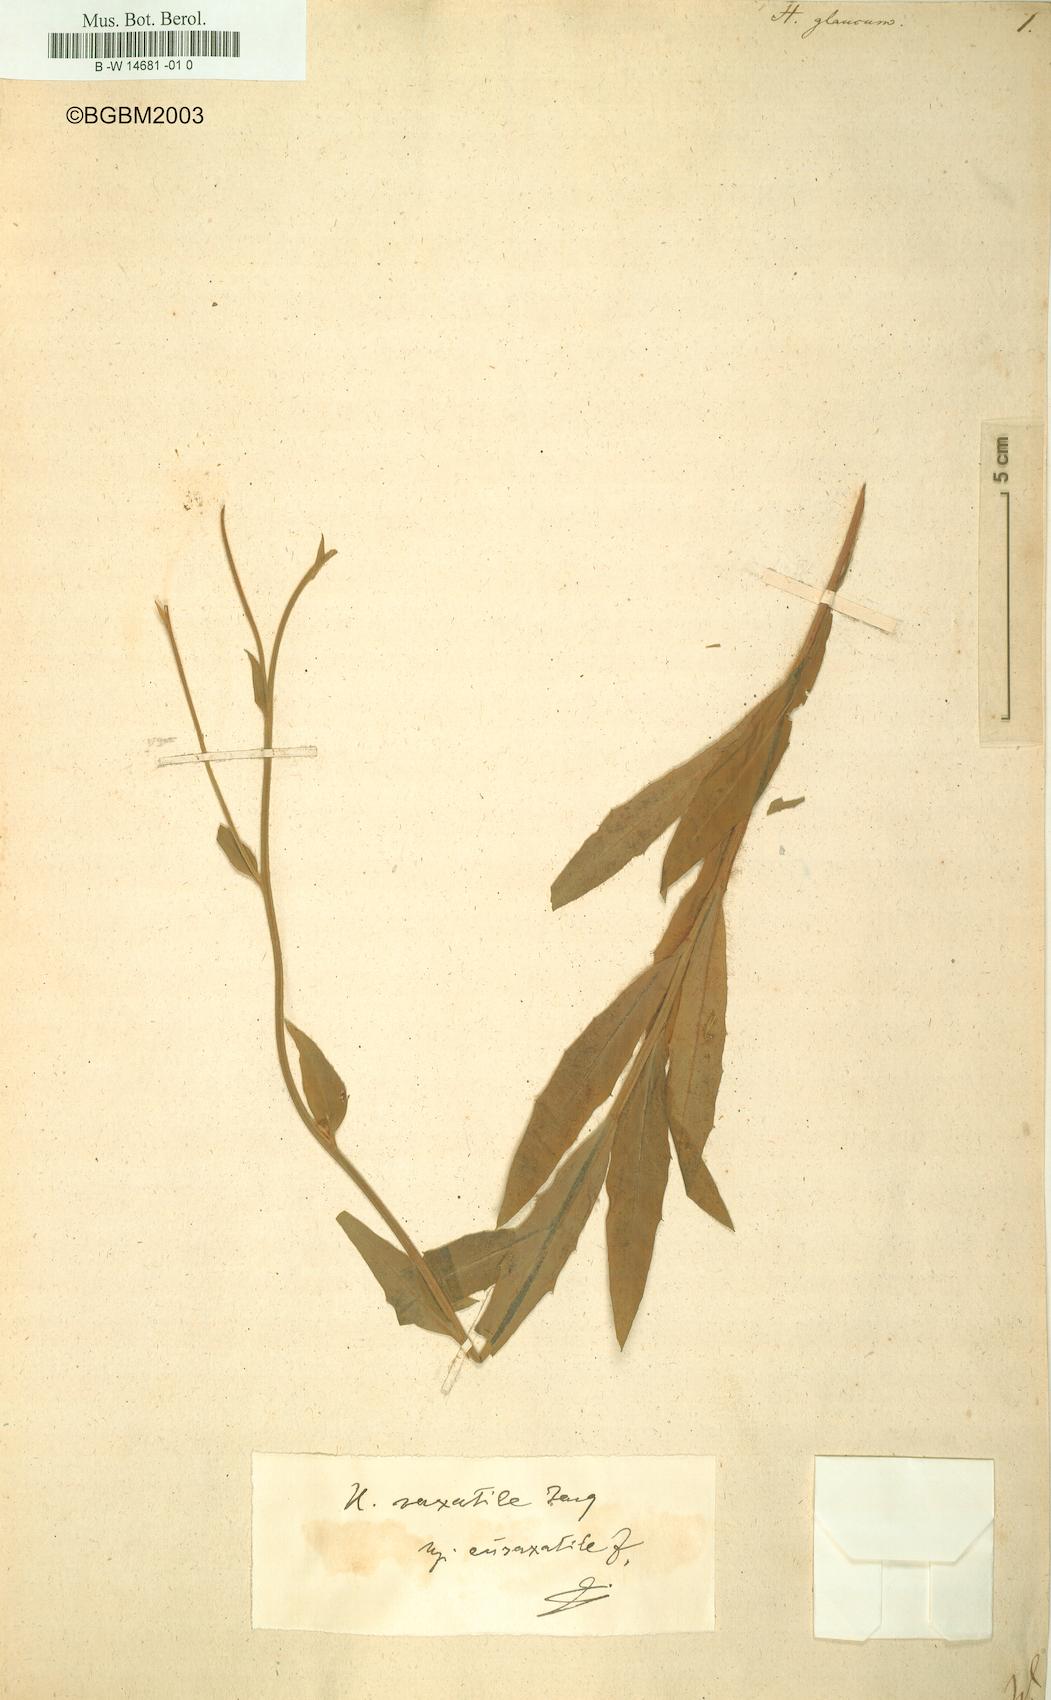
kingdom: Plantae
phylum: Tracheophyta
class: Magnoliopsida
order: Asterales
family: Asteraceae
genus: Hieracium
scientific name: Hieracium glaucum
